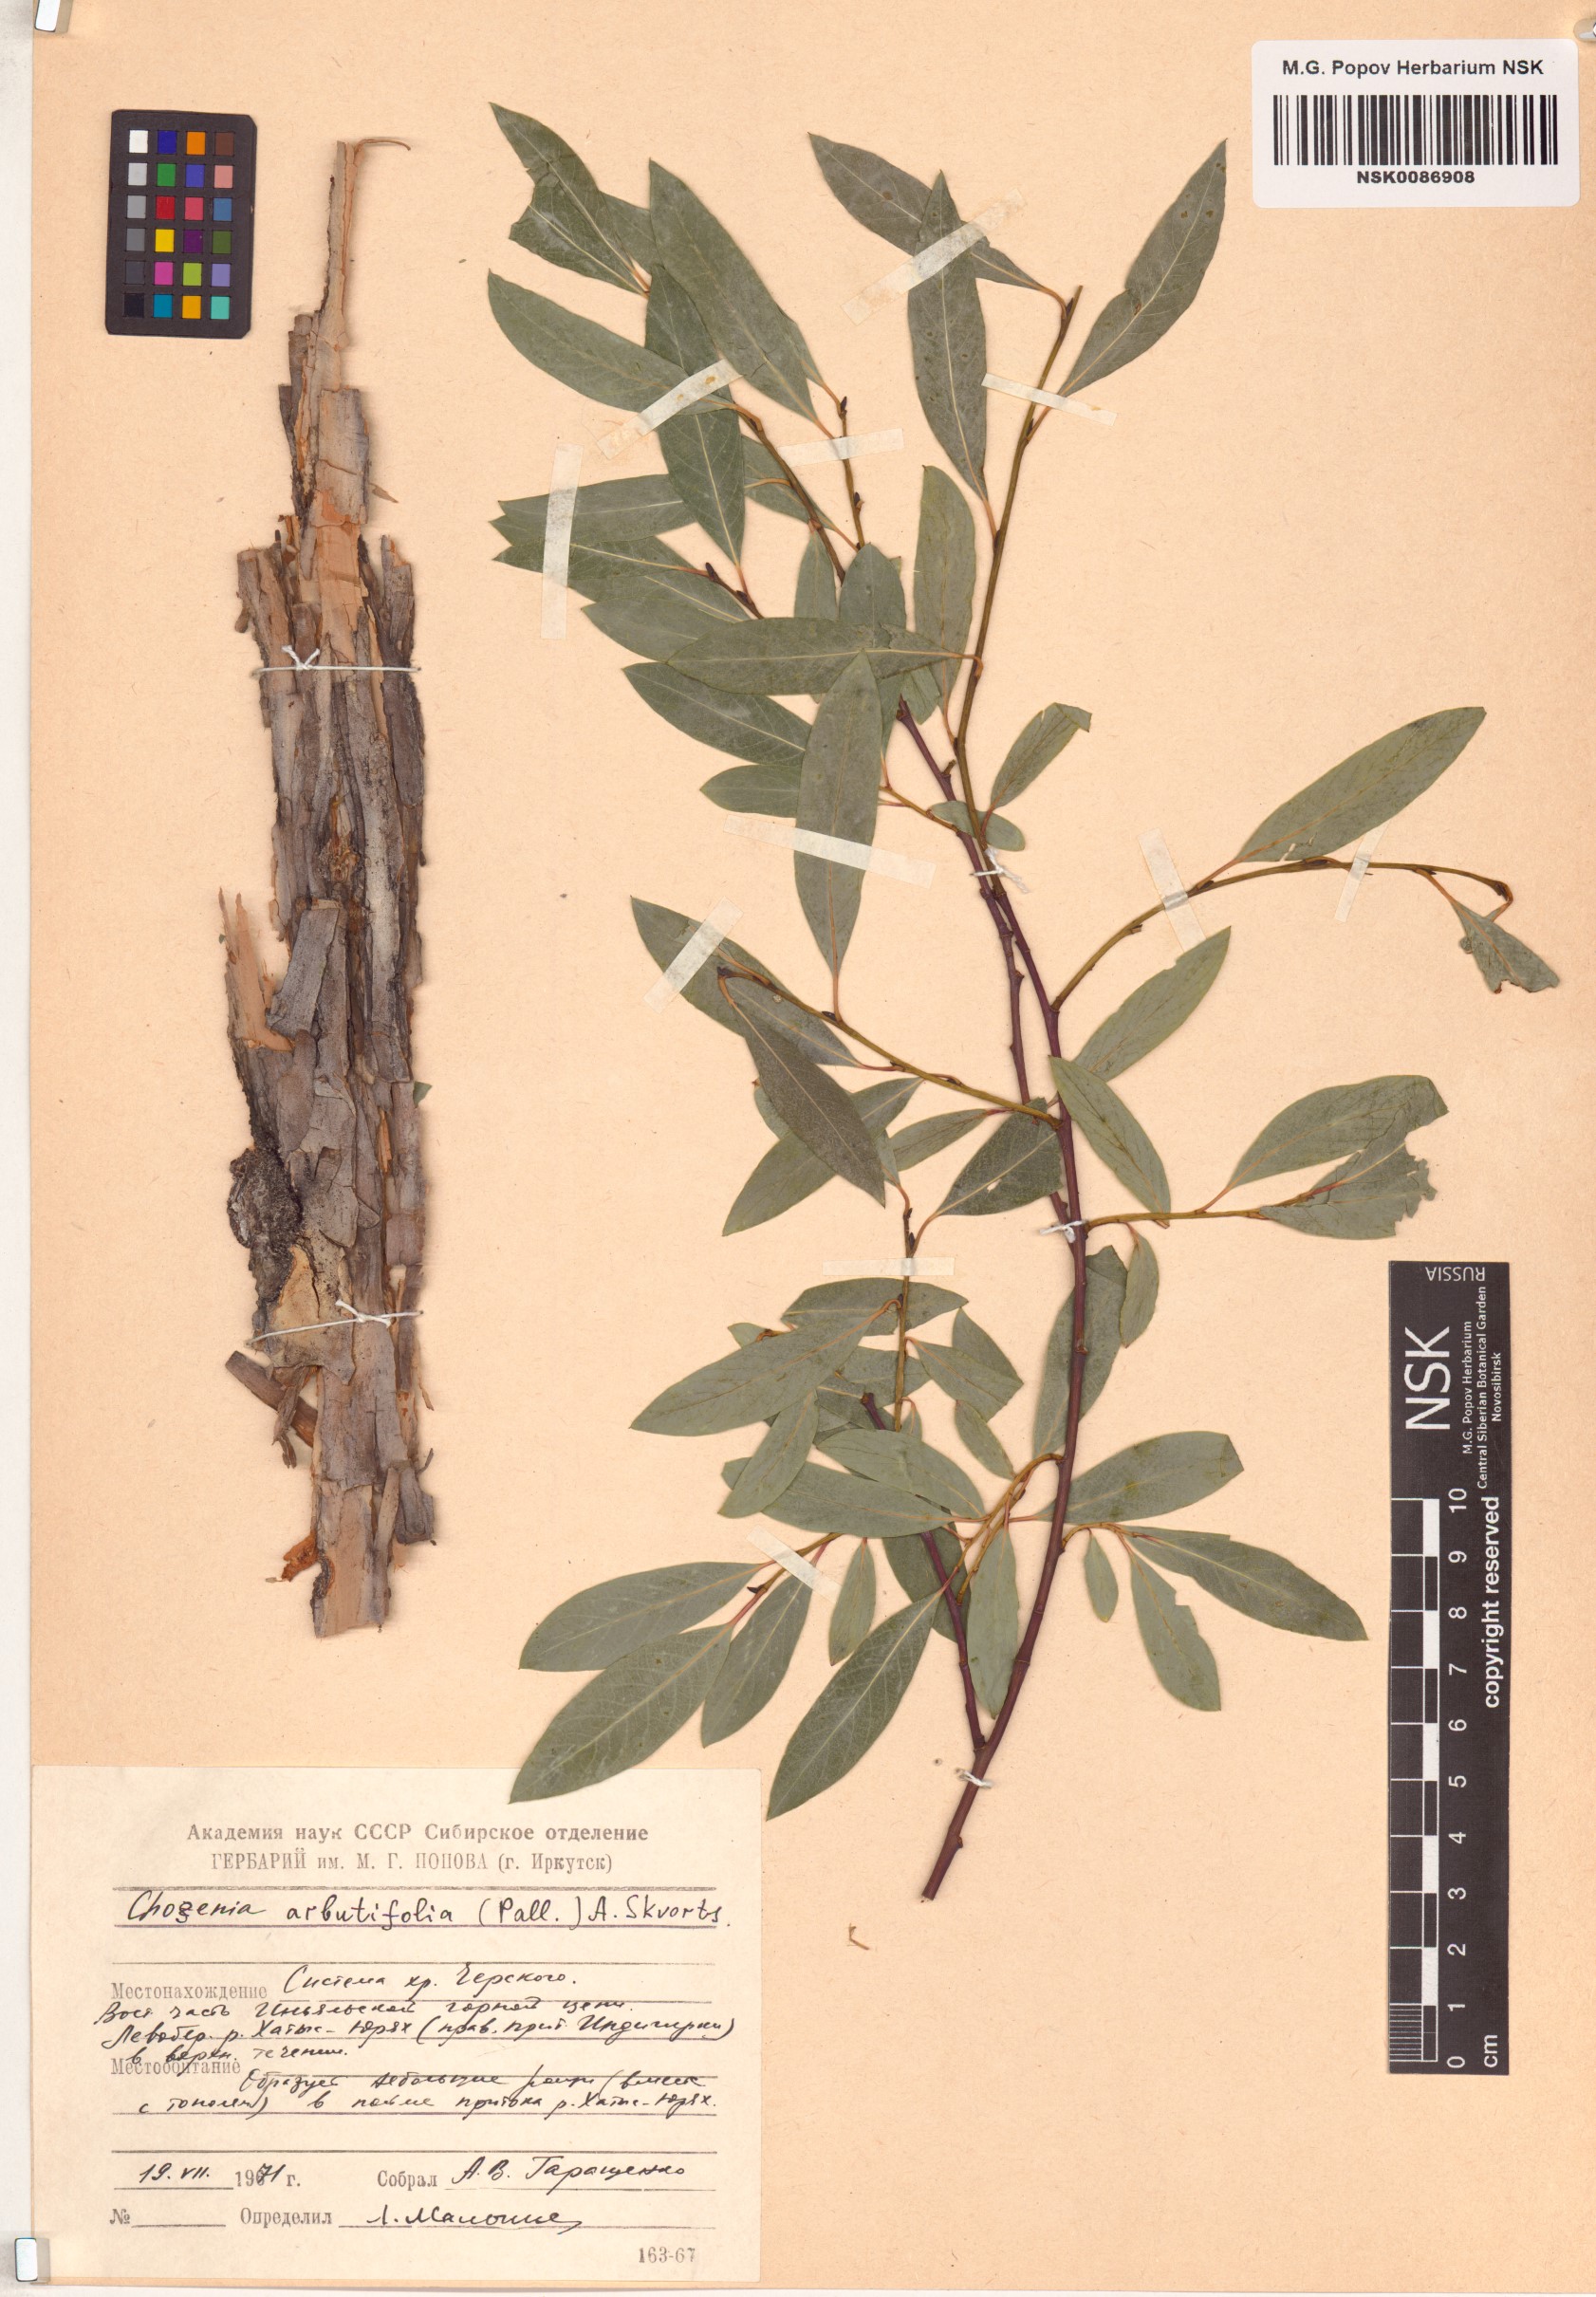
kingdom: Plantae
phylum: Tracheophyta
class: Magnoliopsida
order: Malpighiales
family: Salicaceae
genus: Chosenia
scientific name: Chosenia arbutifolia
